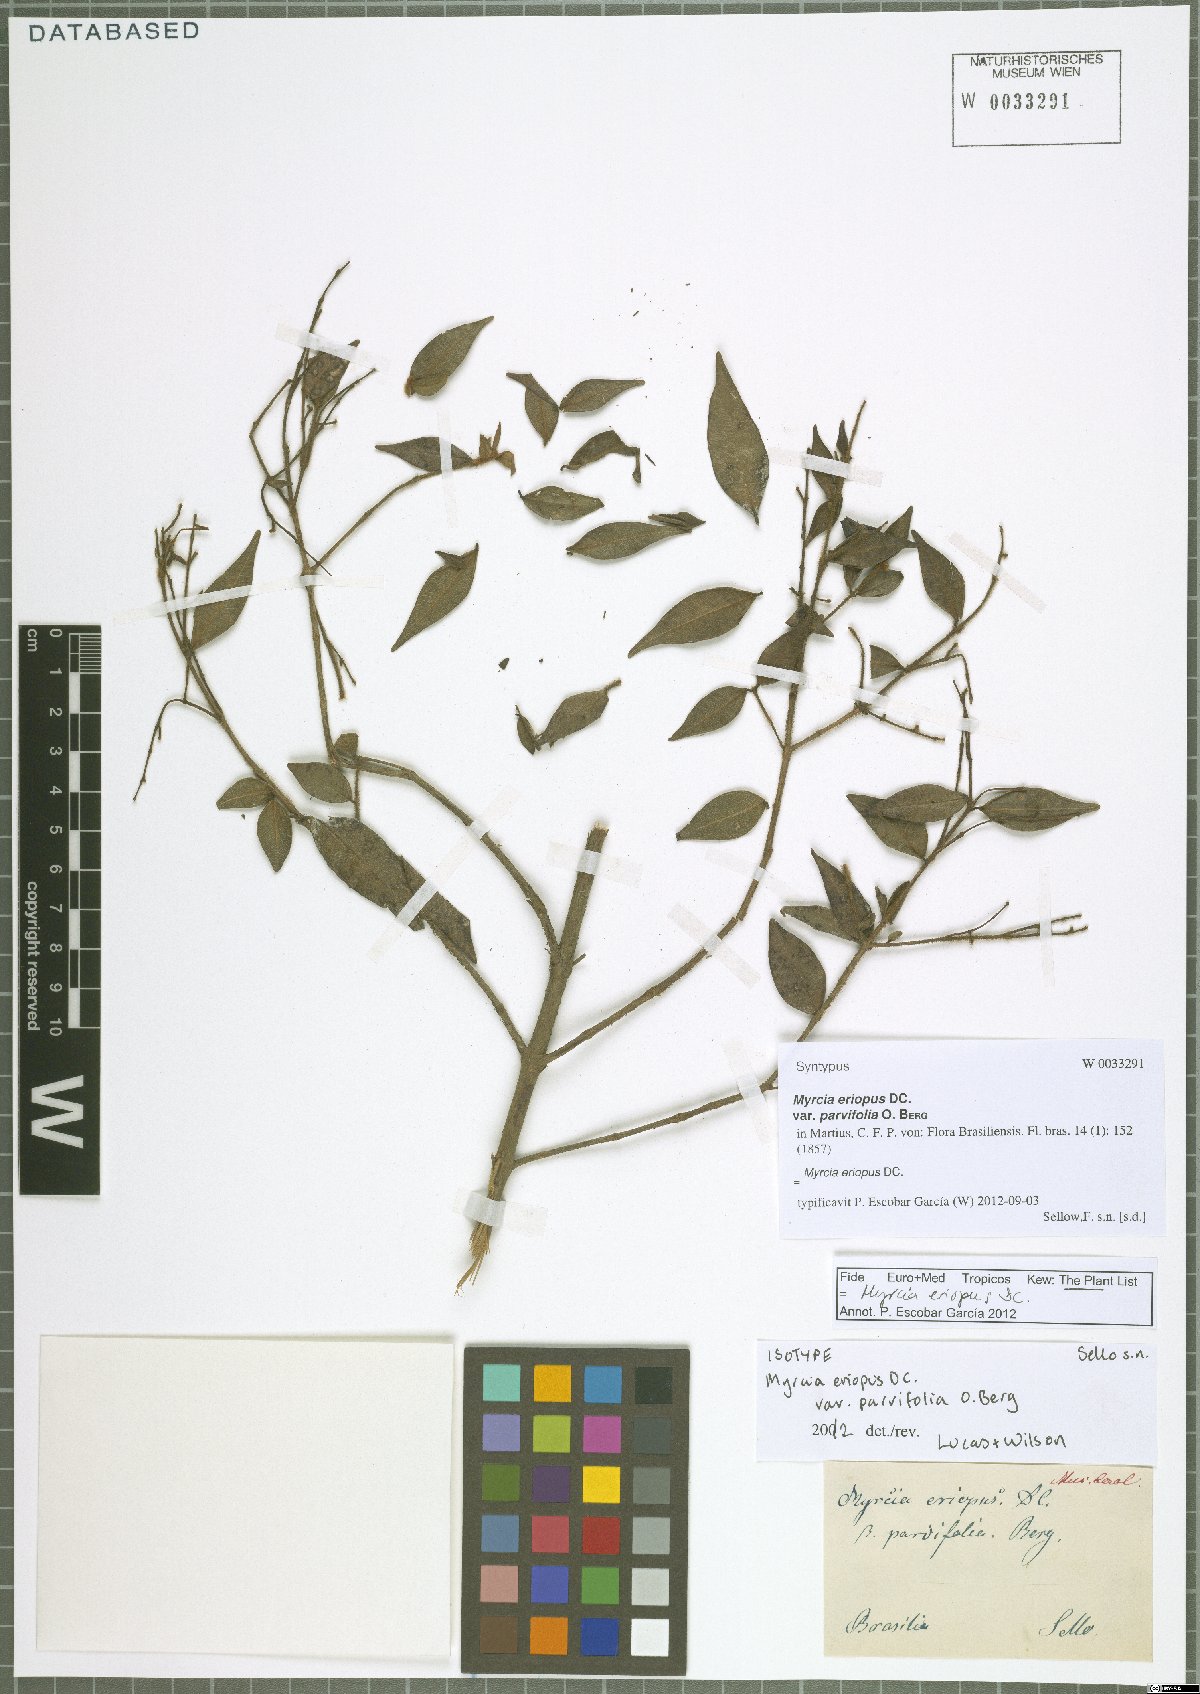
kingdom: Plantae
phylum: Tracheophyta
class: Magnoliopsida
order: Myrtales
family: Myrtaceae
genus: Myrcia
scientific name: Myrcia eriopus
